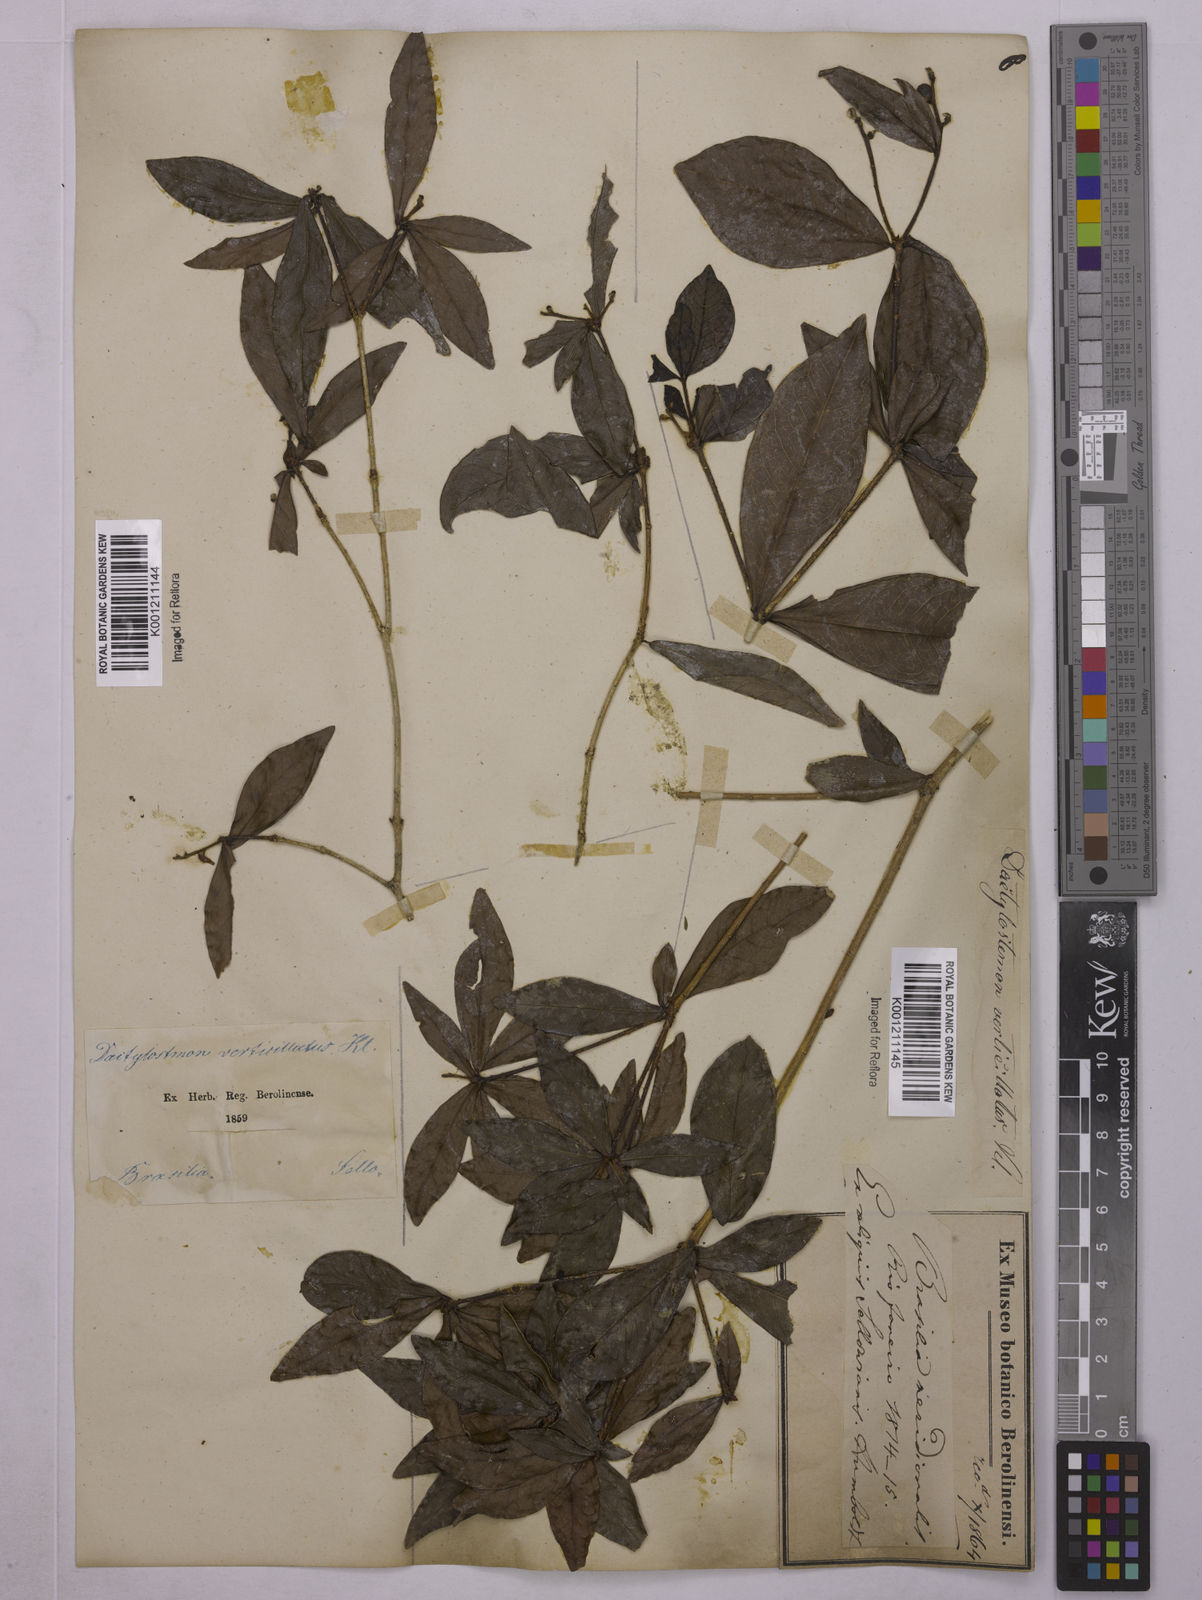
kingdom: Plantae
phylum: Tracheophyta
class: Magnoliopsida
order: Malpighiales
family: Euphorbiaceae
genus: Actinostemon
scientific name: Actinostemon verticillatus
